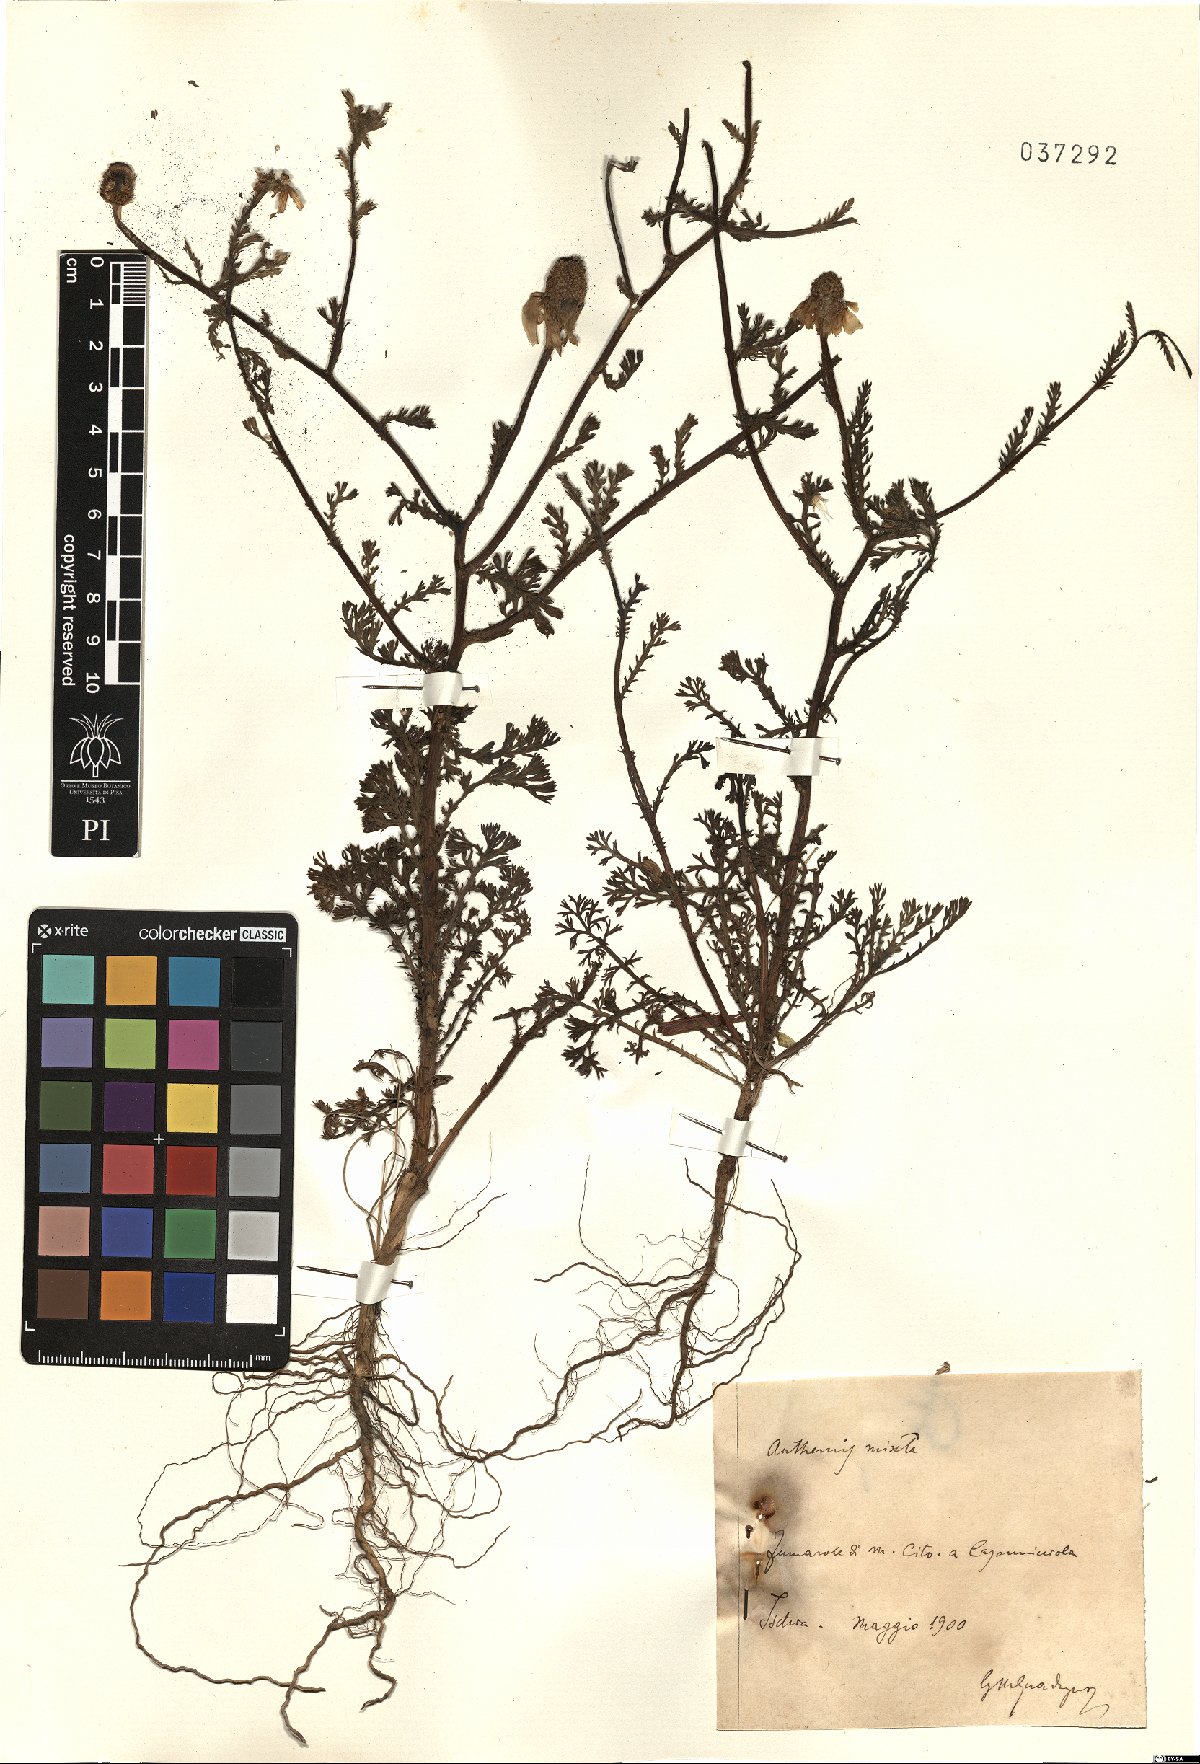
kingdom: Plantae
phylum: Tracheophyta
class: Magnoliopsida
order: Asterales
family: Asteraceae
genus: Cladanthus
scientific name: Cladanthus mixtus
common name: Weedy dogfennel
